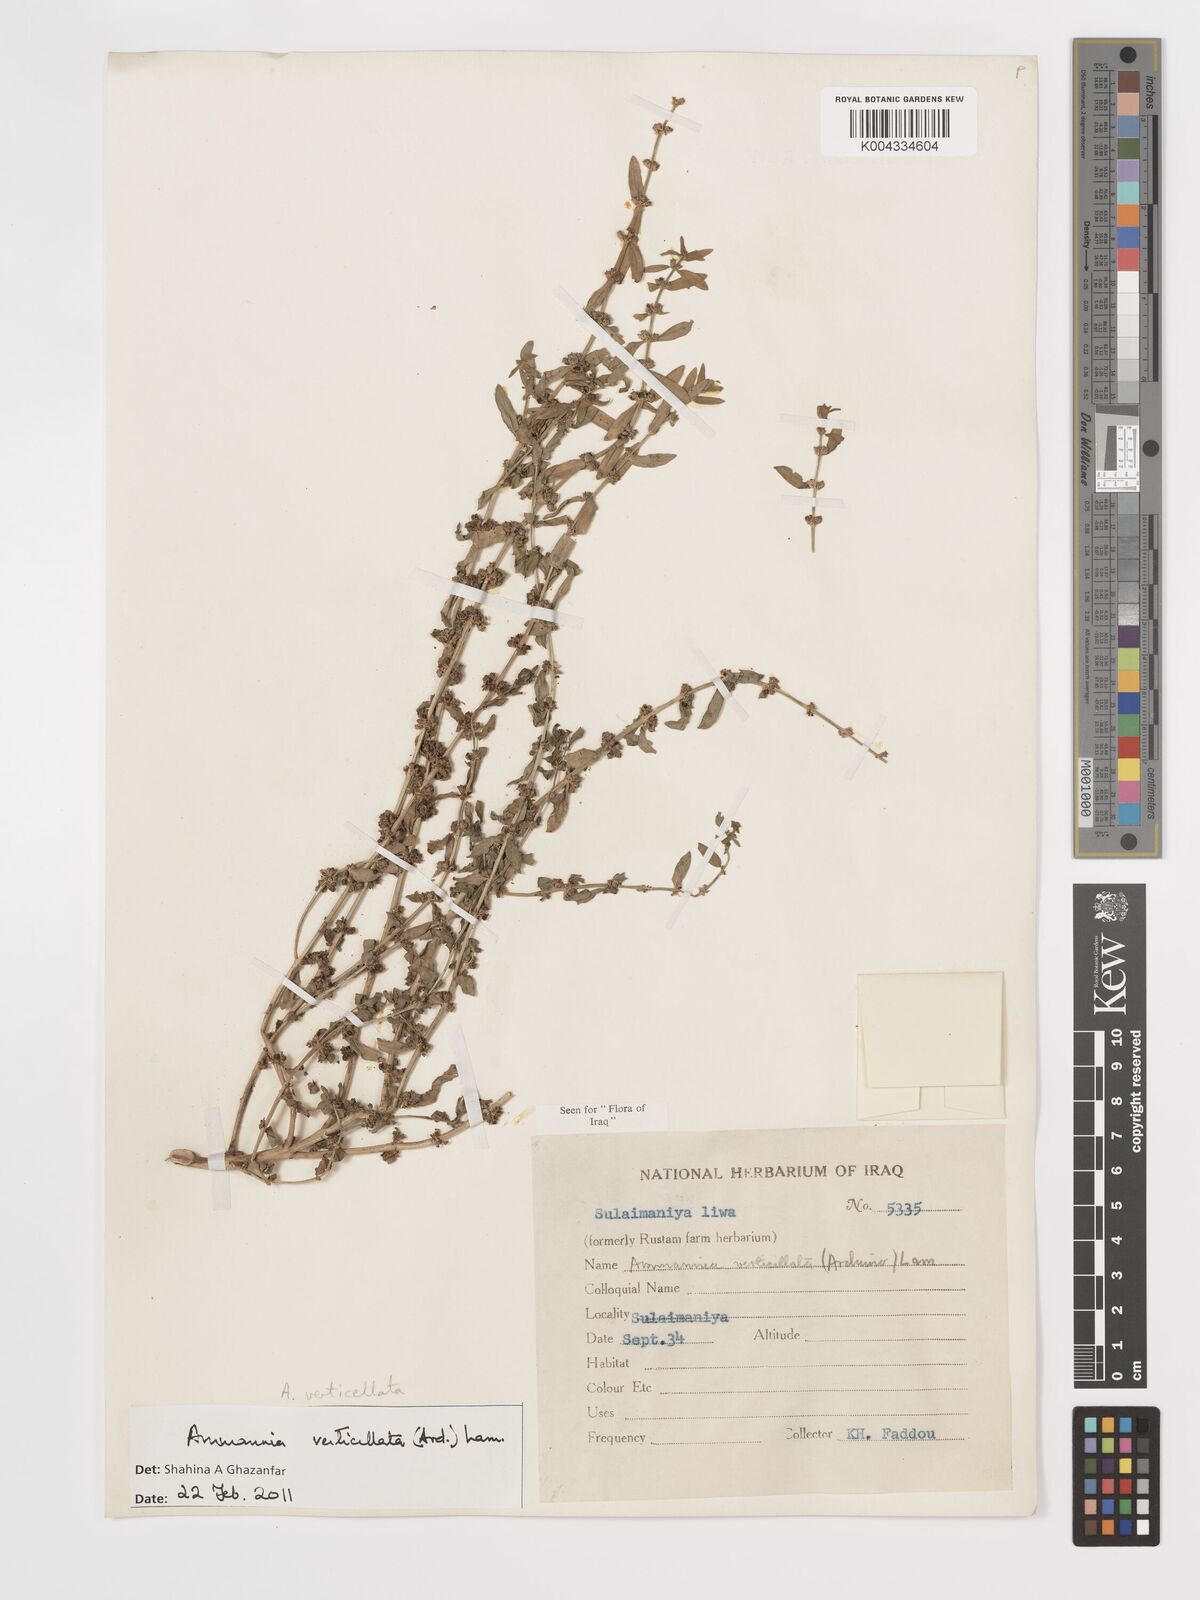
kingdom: Plantae
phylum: Tracheophyta
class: Magnoliopsida
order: Myrtales
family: Lythraceae
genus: Ammannia
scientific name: Ammannia baccifera
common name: Blistering ammania
